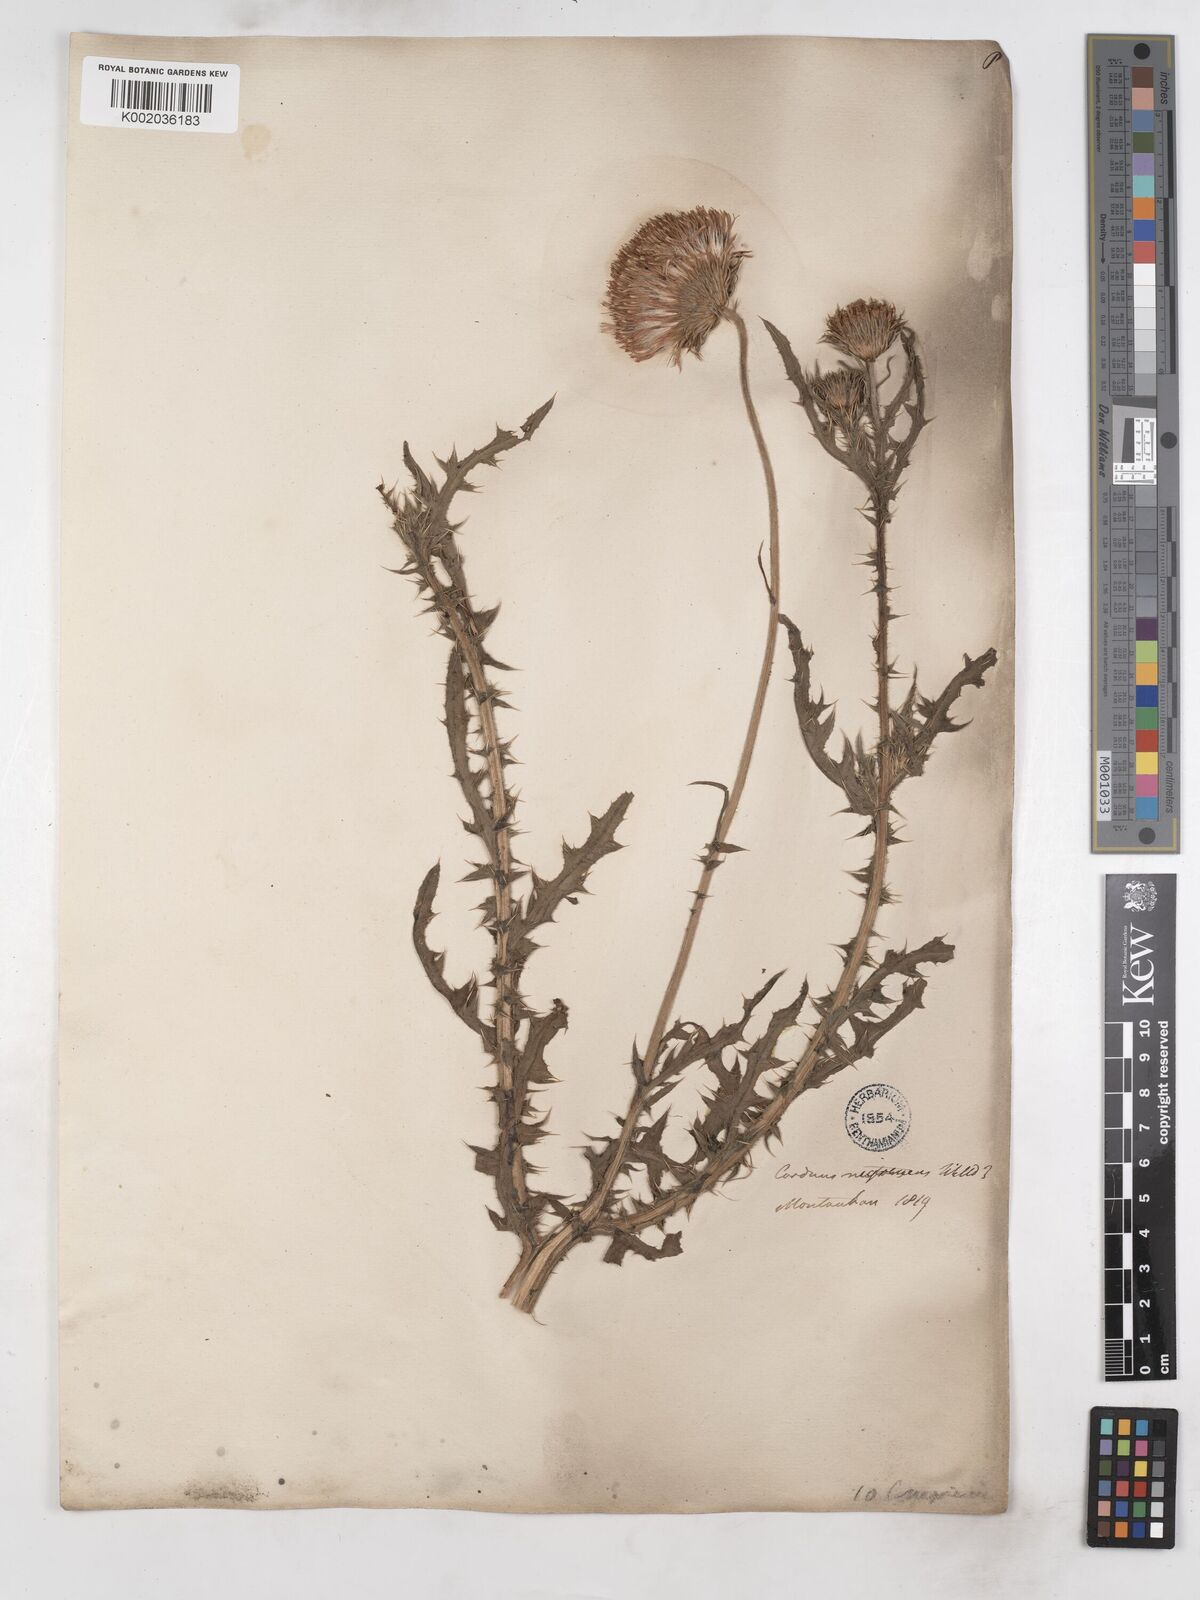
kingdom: Plantae
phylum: Tracheophyta
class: Magnoliopsida
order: Asterales
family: Asteraceae
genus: Carduus
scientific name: Carduus nigrescens
